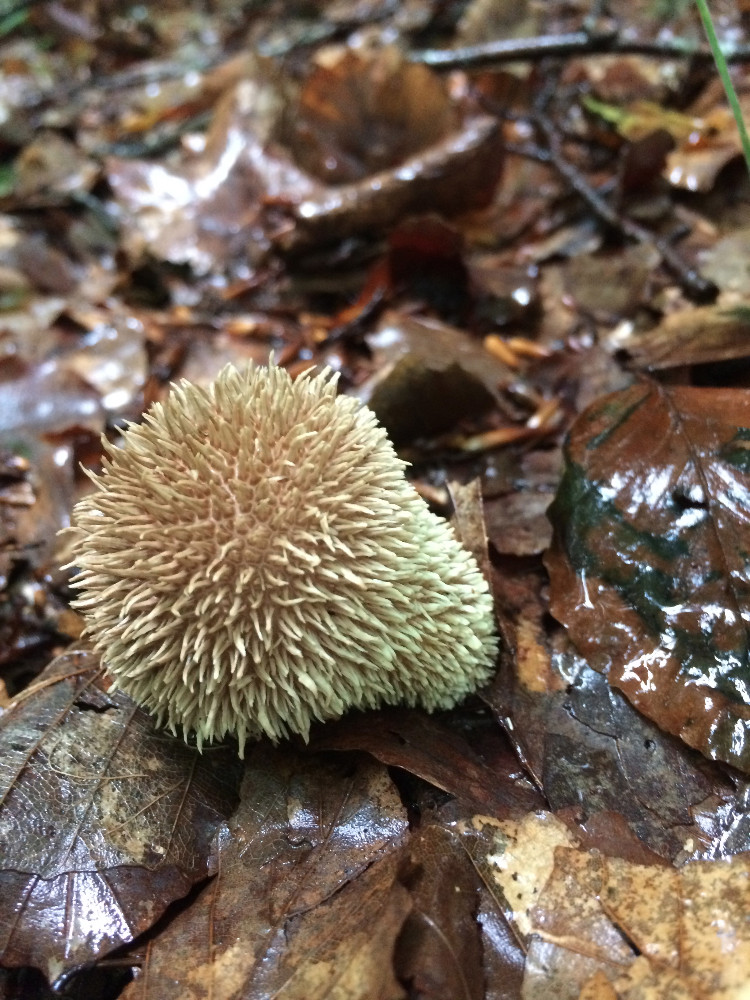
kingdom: Fungi
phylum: Basidiomycota
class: Agaricomycetes
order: Agaricales
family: Lycoperdaceae
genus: Lycoperdon
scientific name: Lycoperdon echinatum
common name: pindsvine-støvbold
